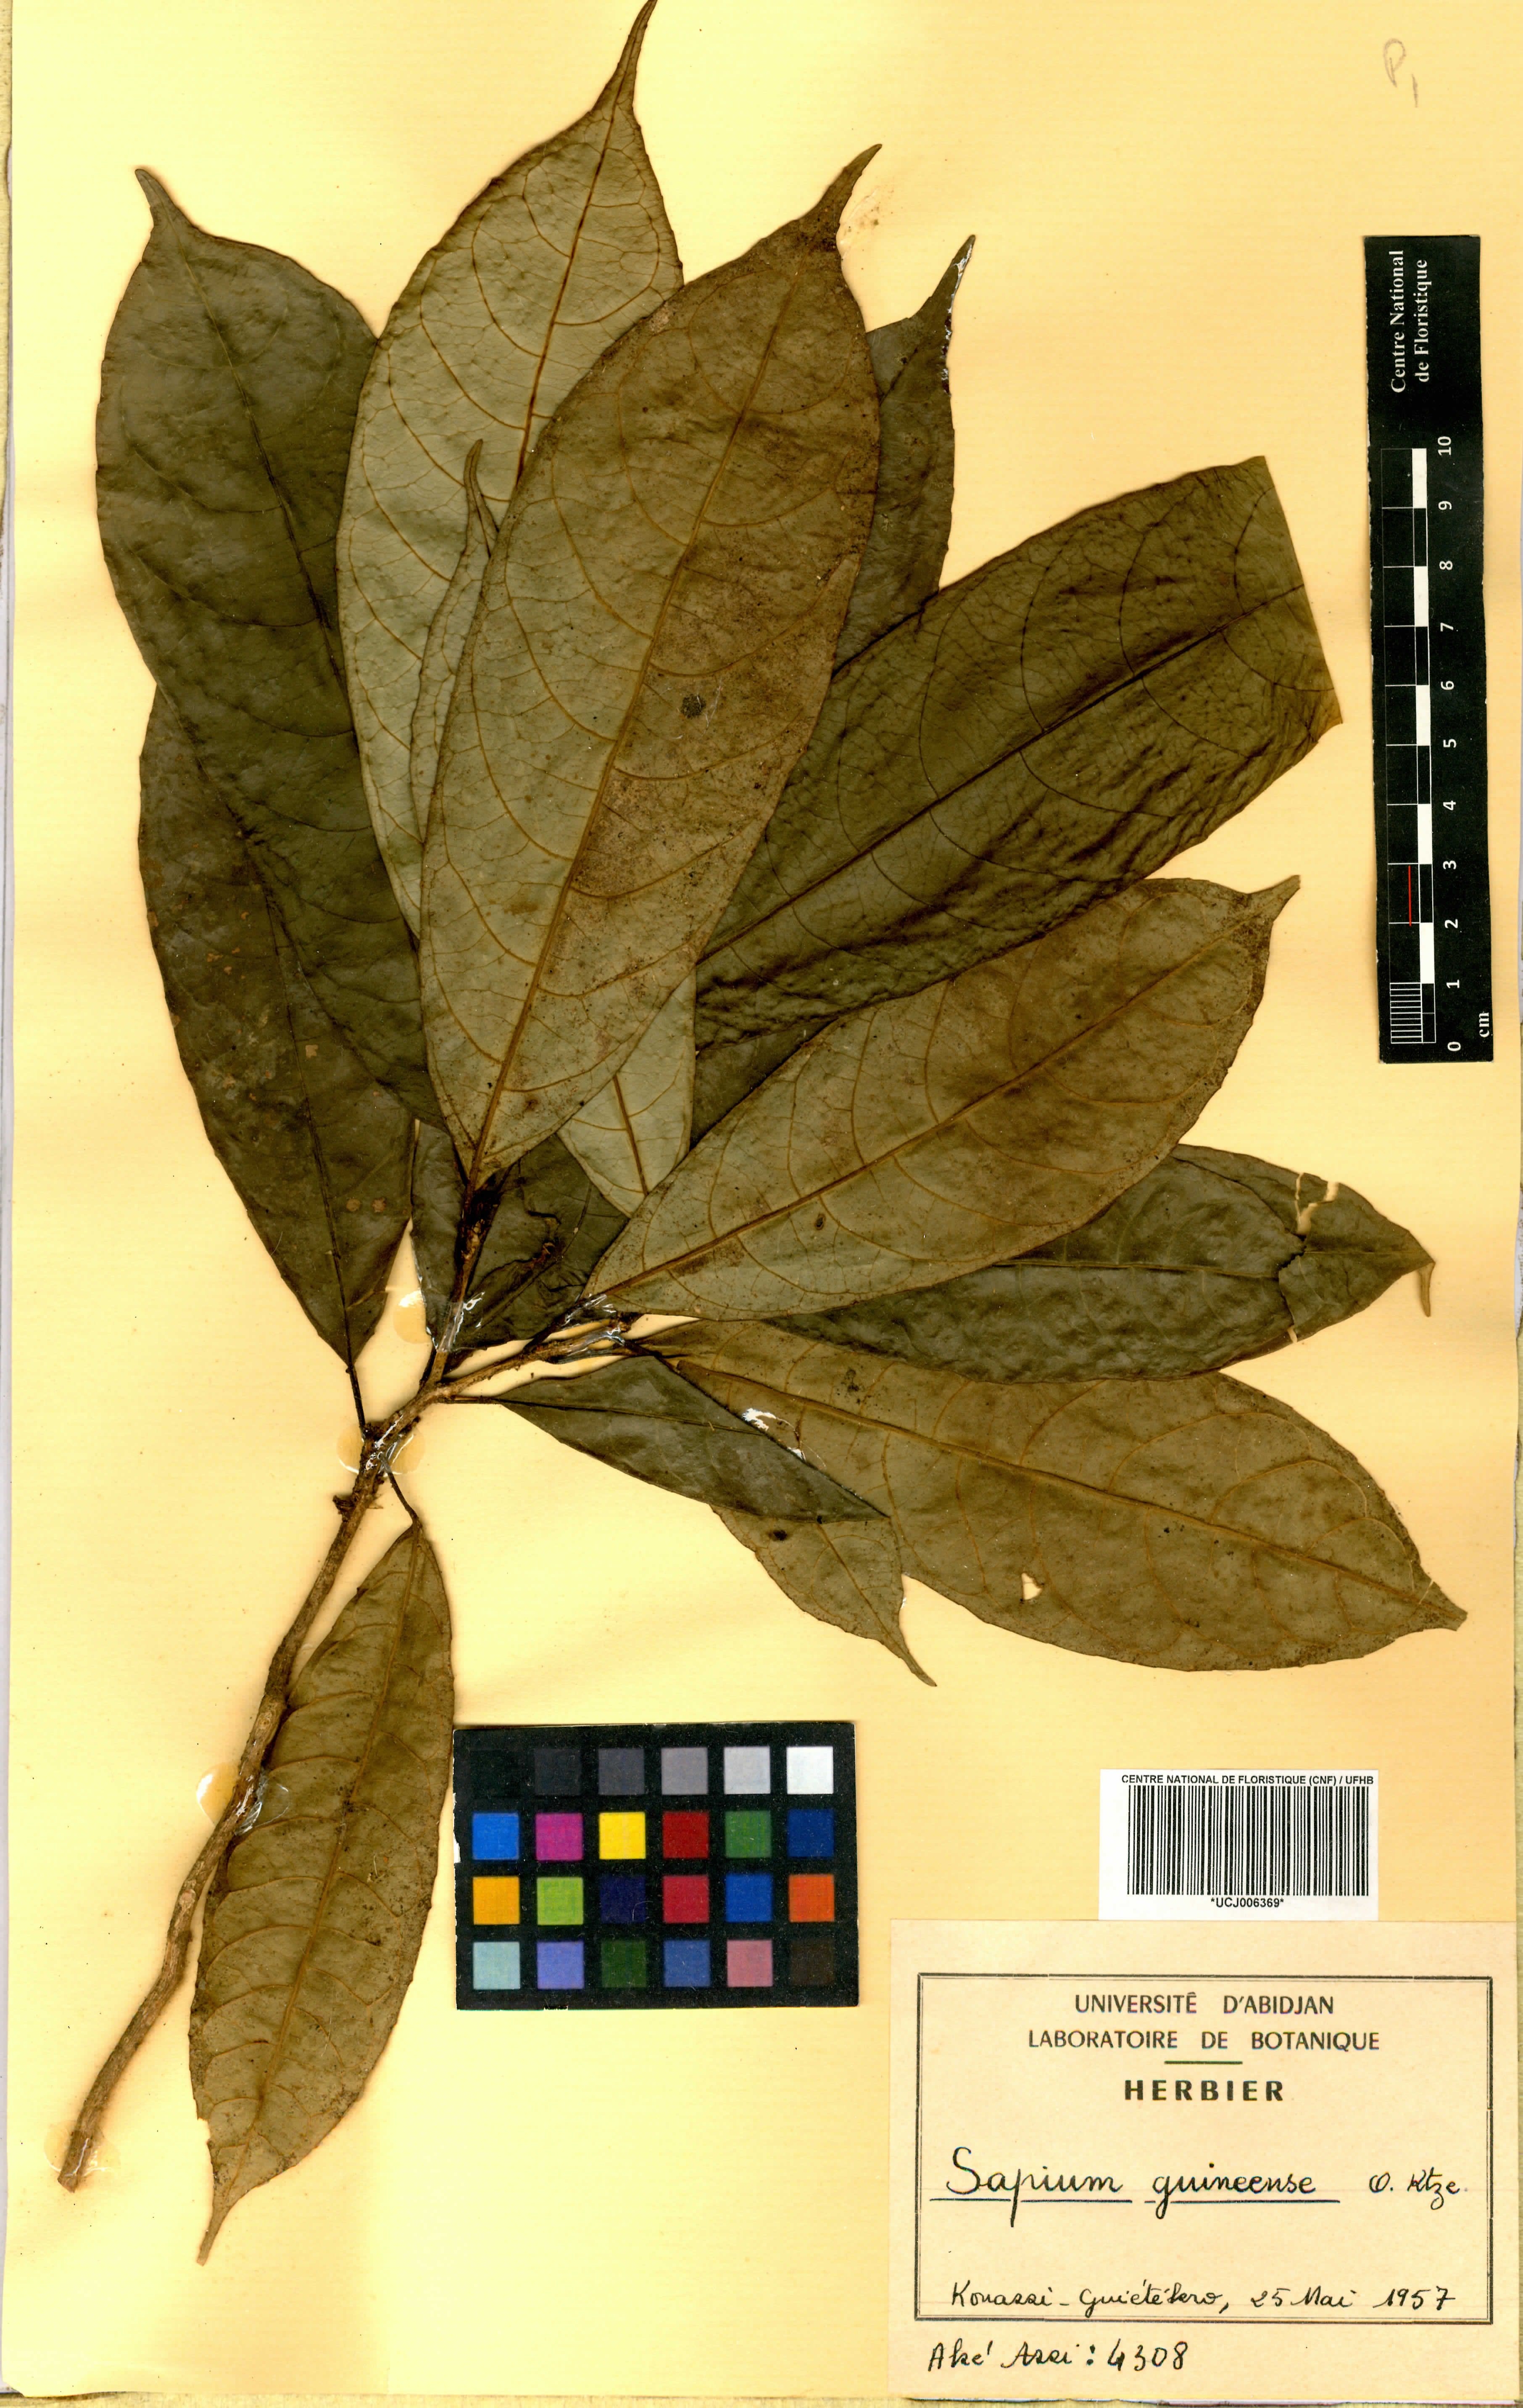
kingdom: Plantae
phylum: Tracheophyta
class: Magnoliopsida
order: Malpighiales
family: Euphorbiaceae
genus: Excoecaria
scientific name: Excoecaria guineensis
